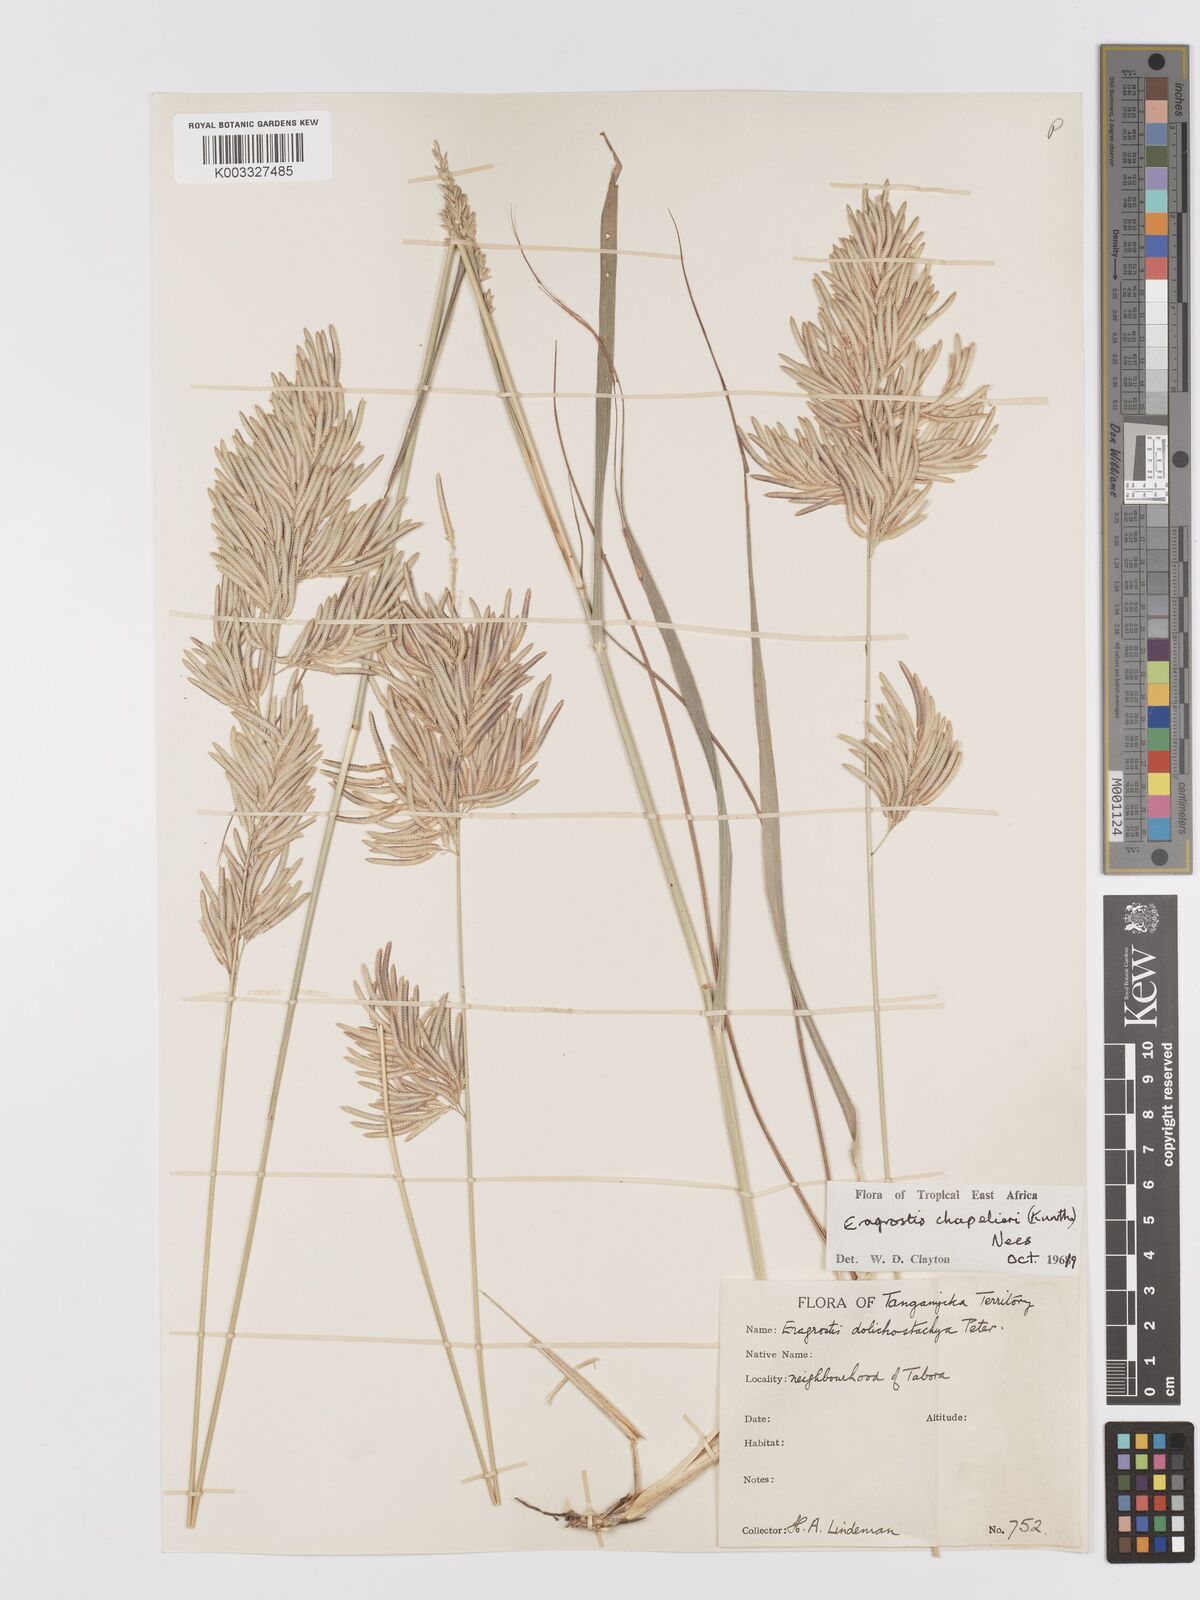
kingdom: Plantae
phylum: Tracheophyta
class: Liliopsida
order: Poales
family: Poaceae
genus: Eragrostis
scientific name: Eragrostis chapelieri
